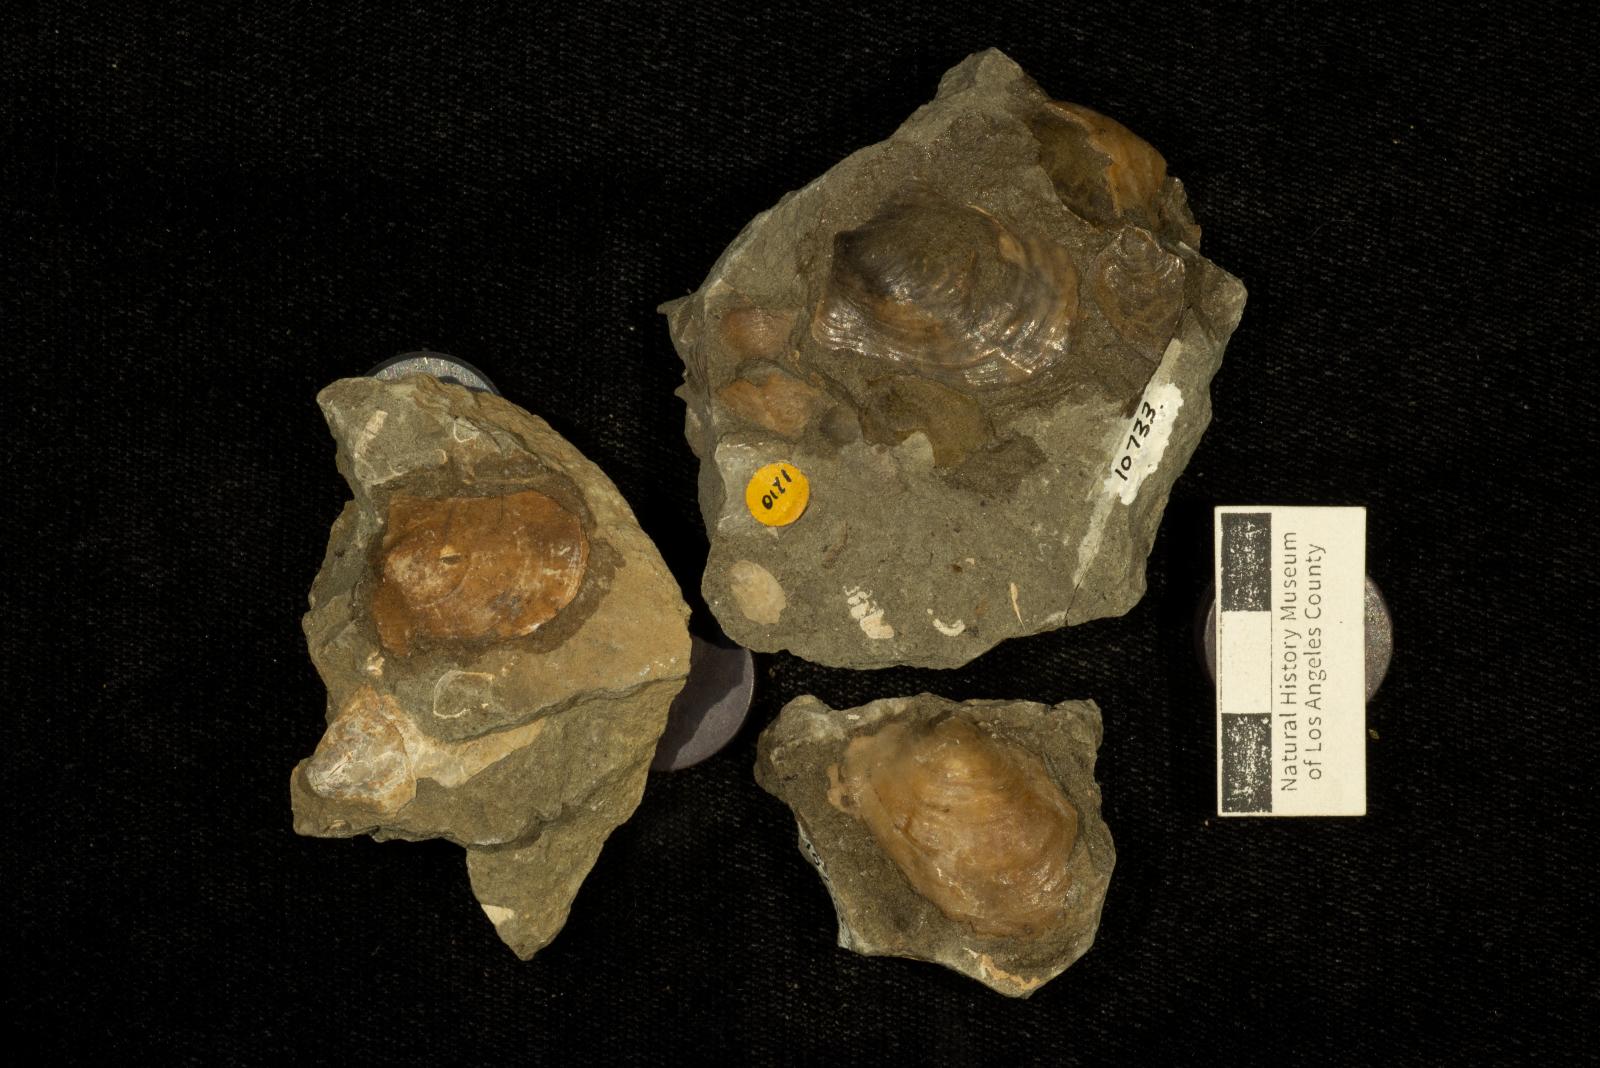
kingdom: Animalia
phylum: Mollusca
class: Bivalvia
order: Ostreida
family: Gryphaeidae
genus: Pycnodonte
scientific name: Pycnodonte
